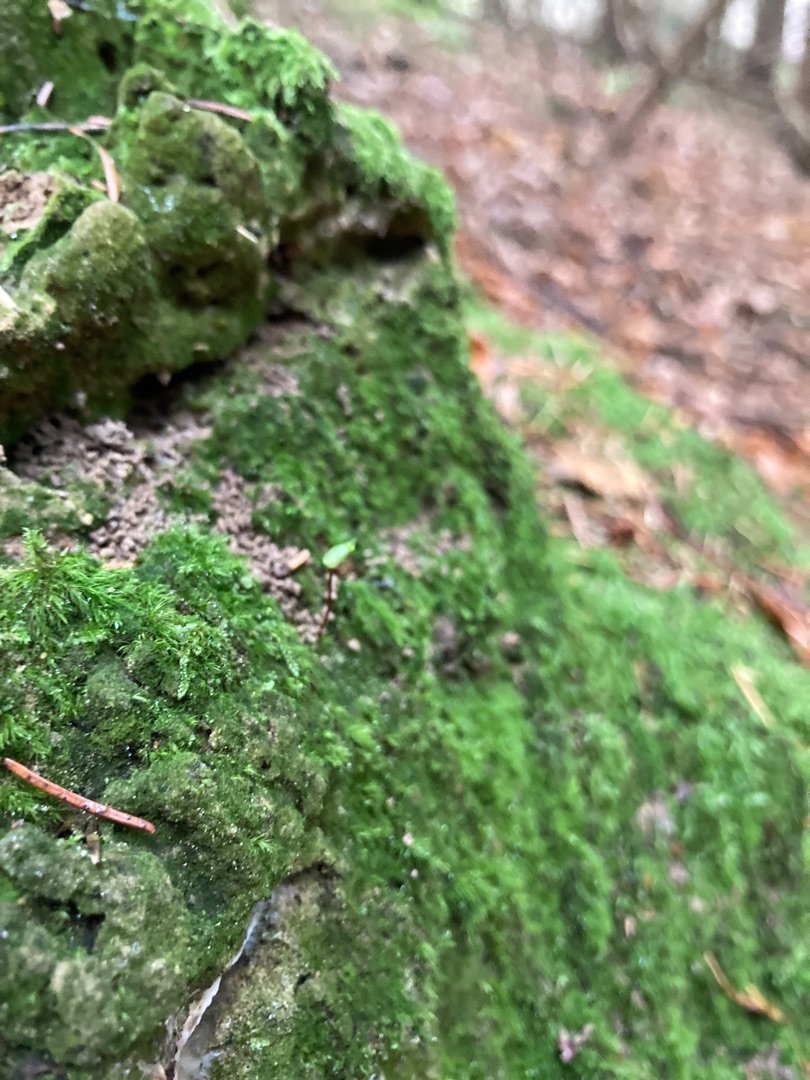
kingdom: Plantae
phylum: Bryophyta
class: Bryopsida
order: Buxbaumiales
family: Buxbaumiaceae
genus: Buxbaumia
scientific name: Buxbaumia aphylla
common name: Rundkapslet buxbaumia
